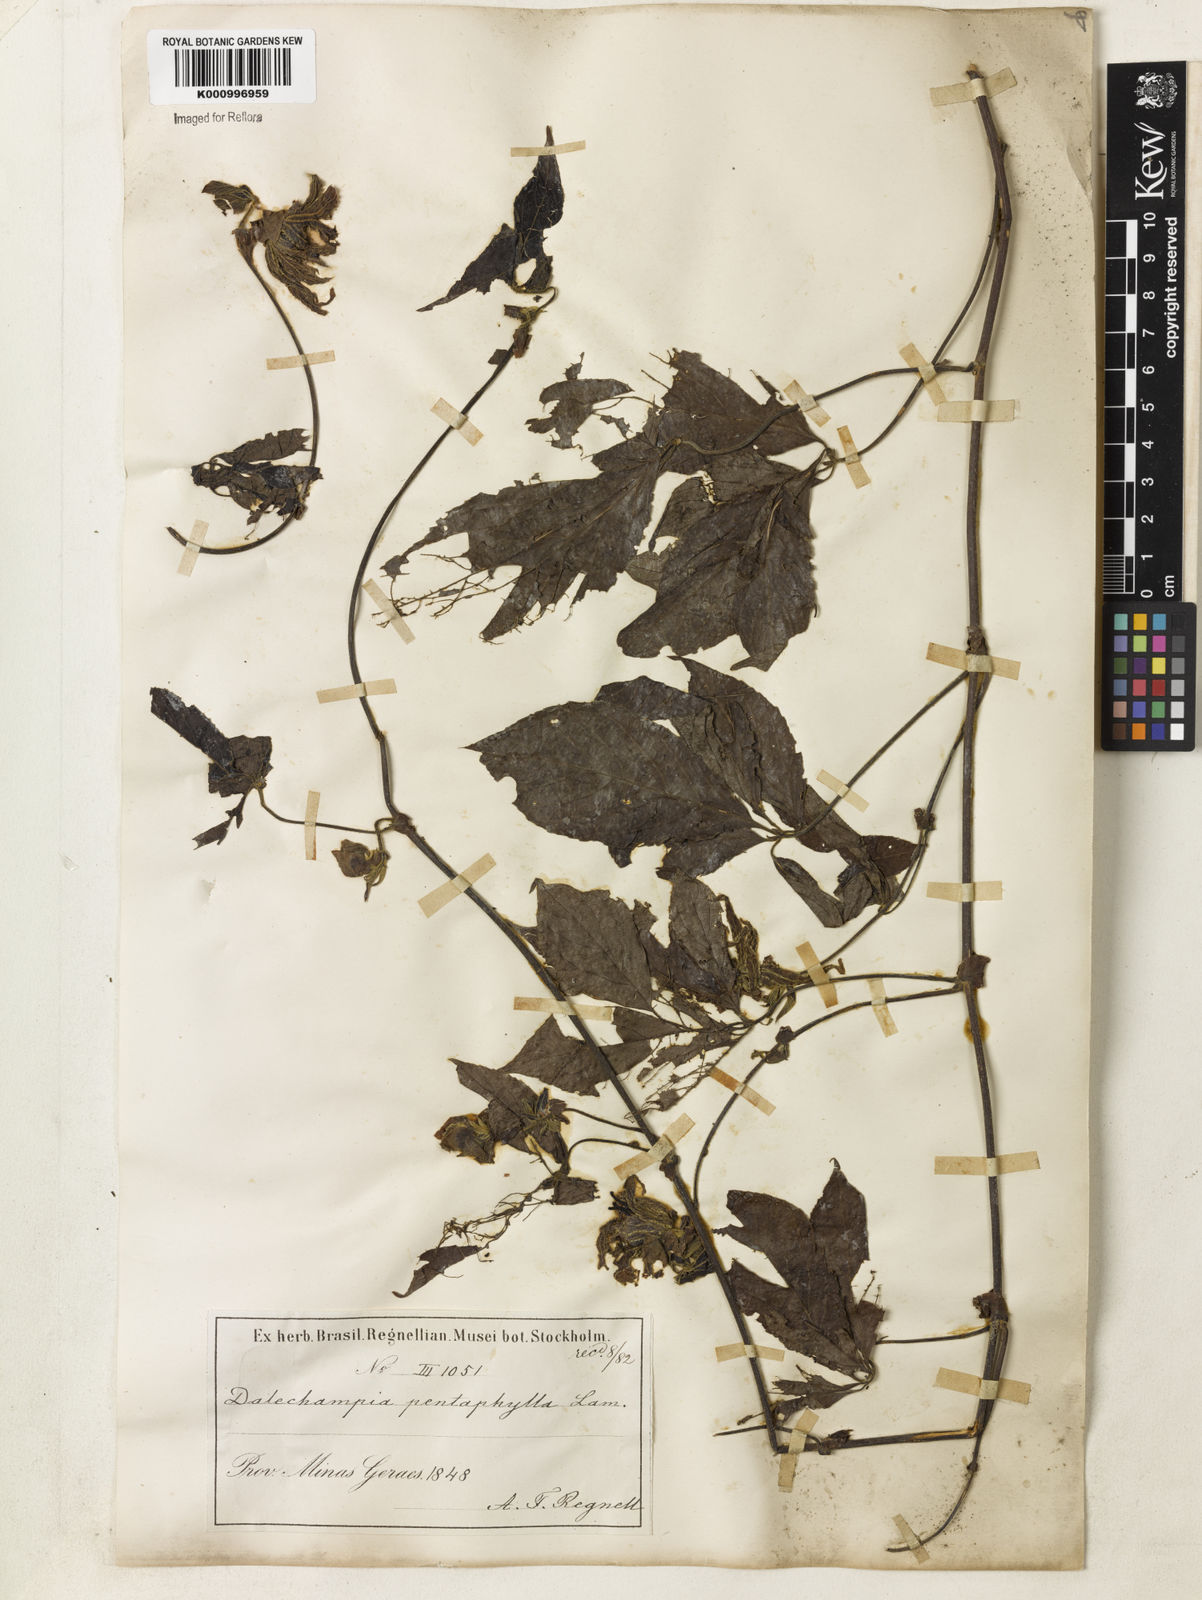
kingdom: Plantae
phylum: Tracheophyta
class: Magnoliopsida
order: Malpighiales
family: Euphorbiaceae
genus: Dalechampia
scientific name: Dalechampia pentaphylla
